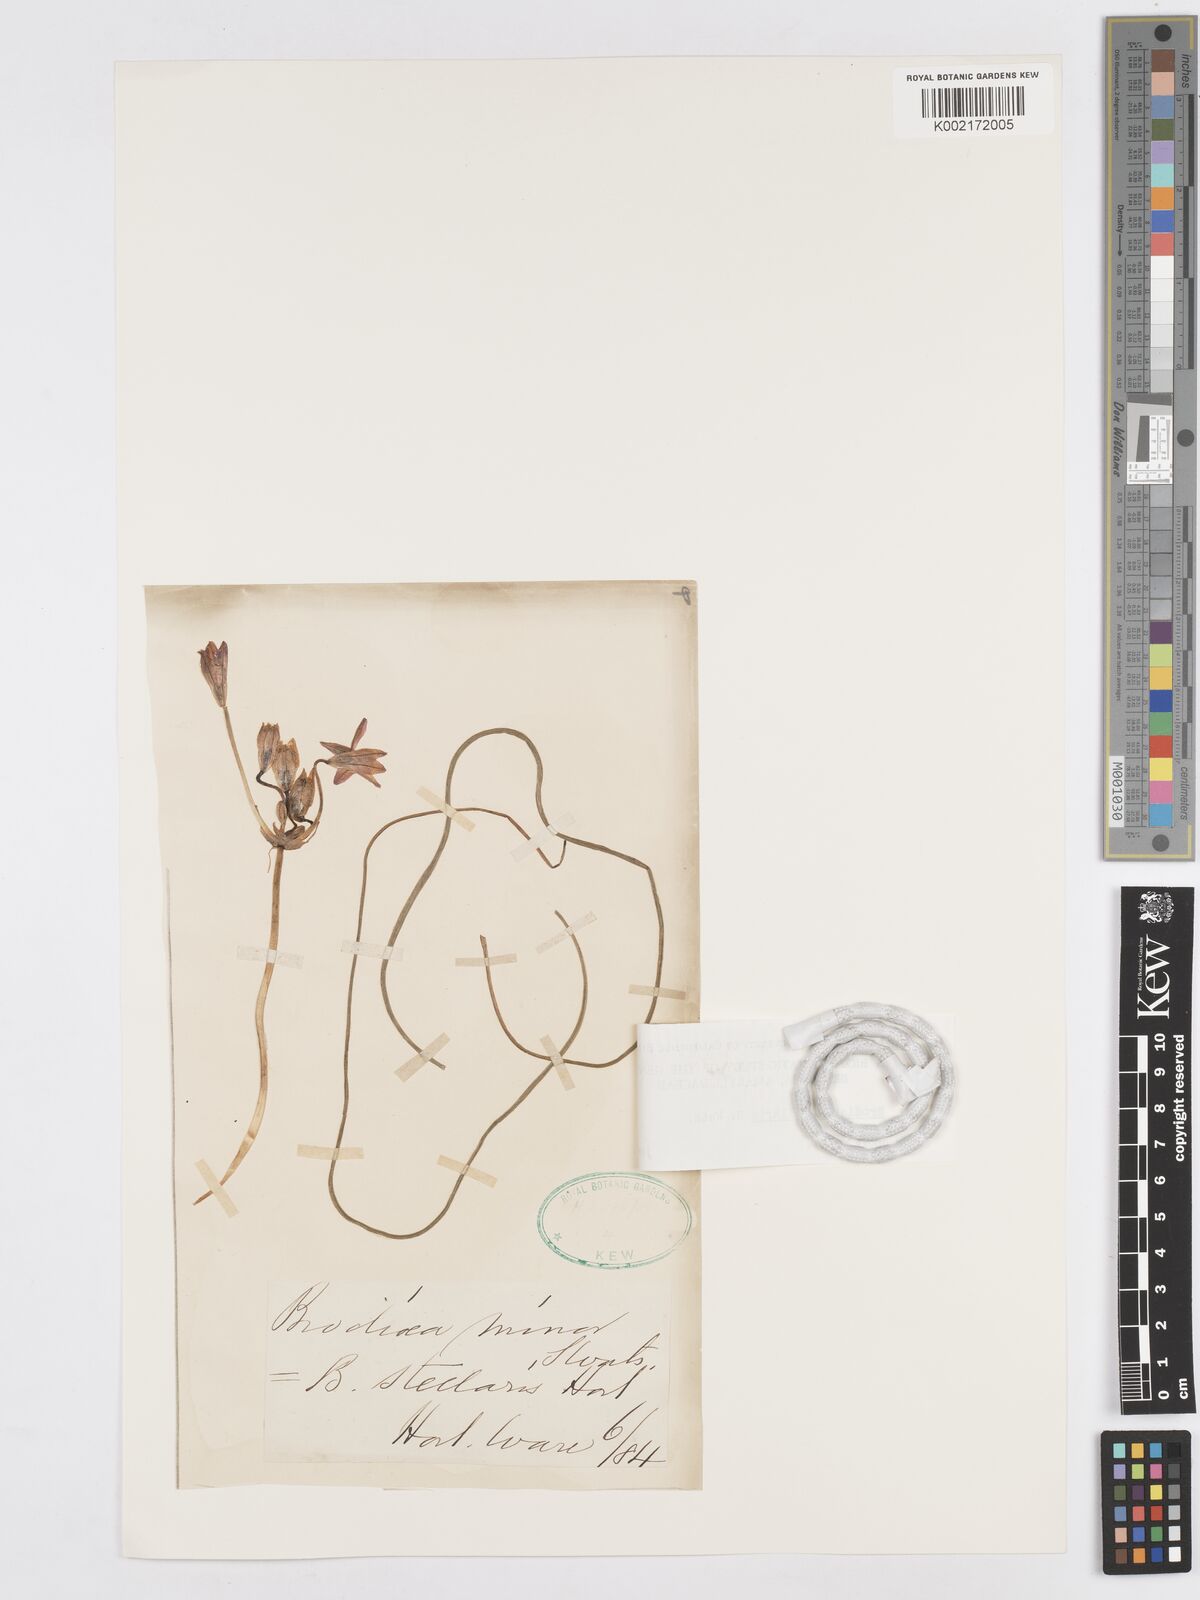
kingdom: Plantae
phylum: Tracheophyta
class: Liliopsida
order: Asparagales
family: Asparagaceae
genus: Brodiaea
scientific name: Brodiaea stellaris
